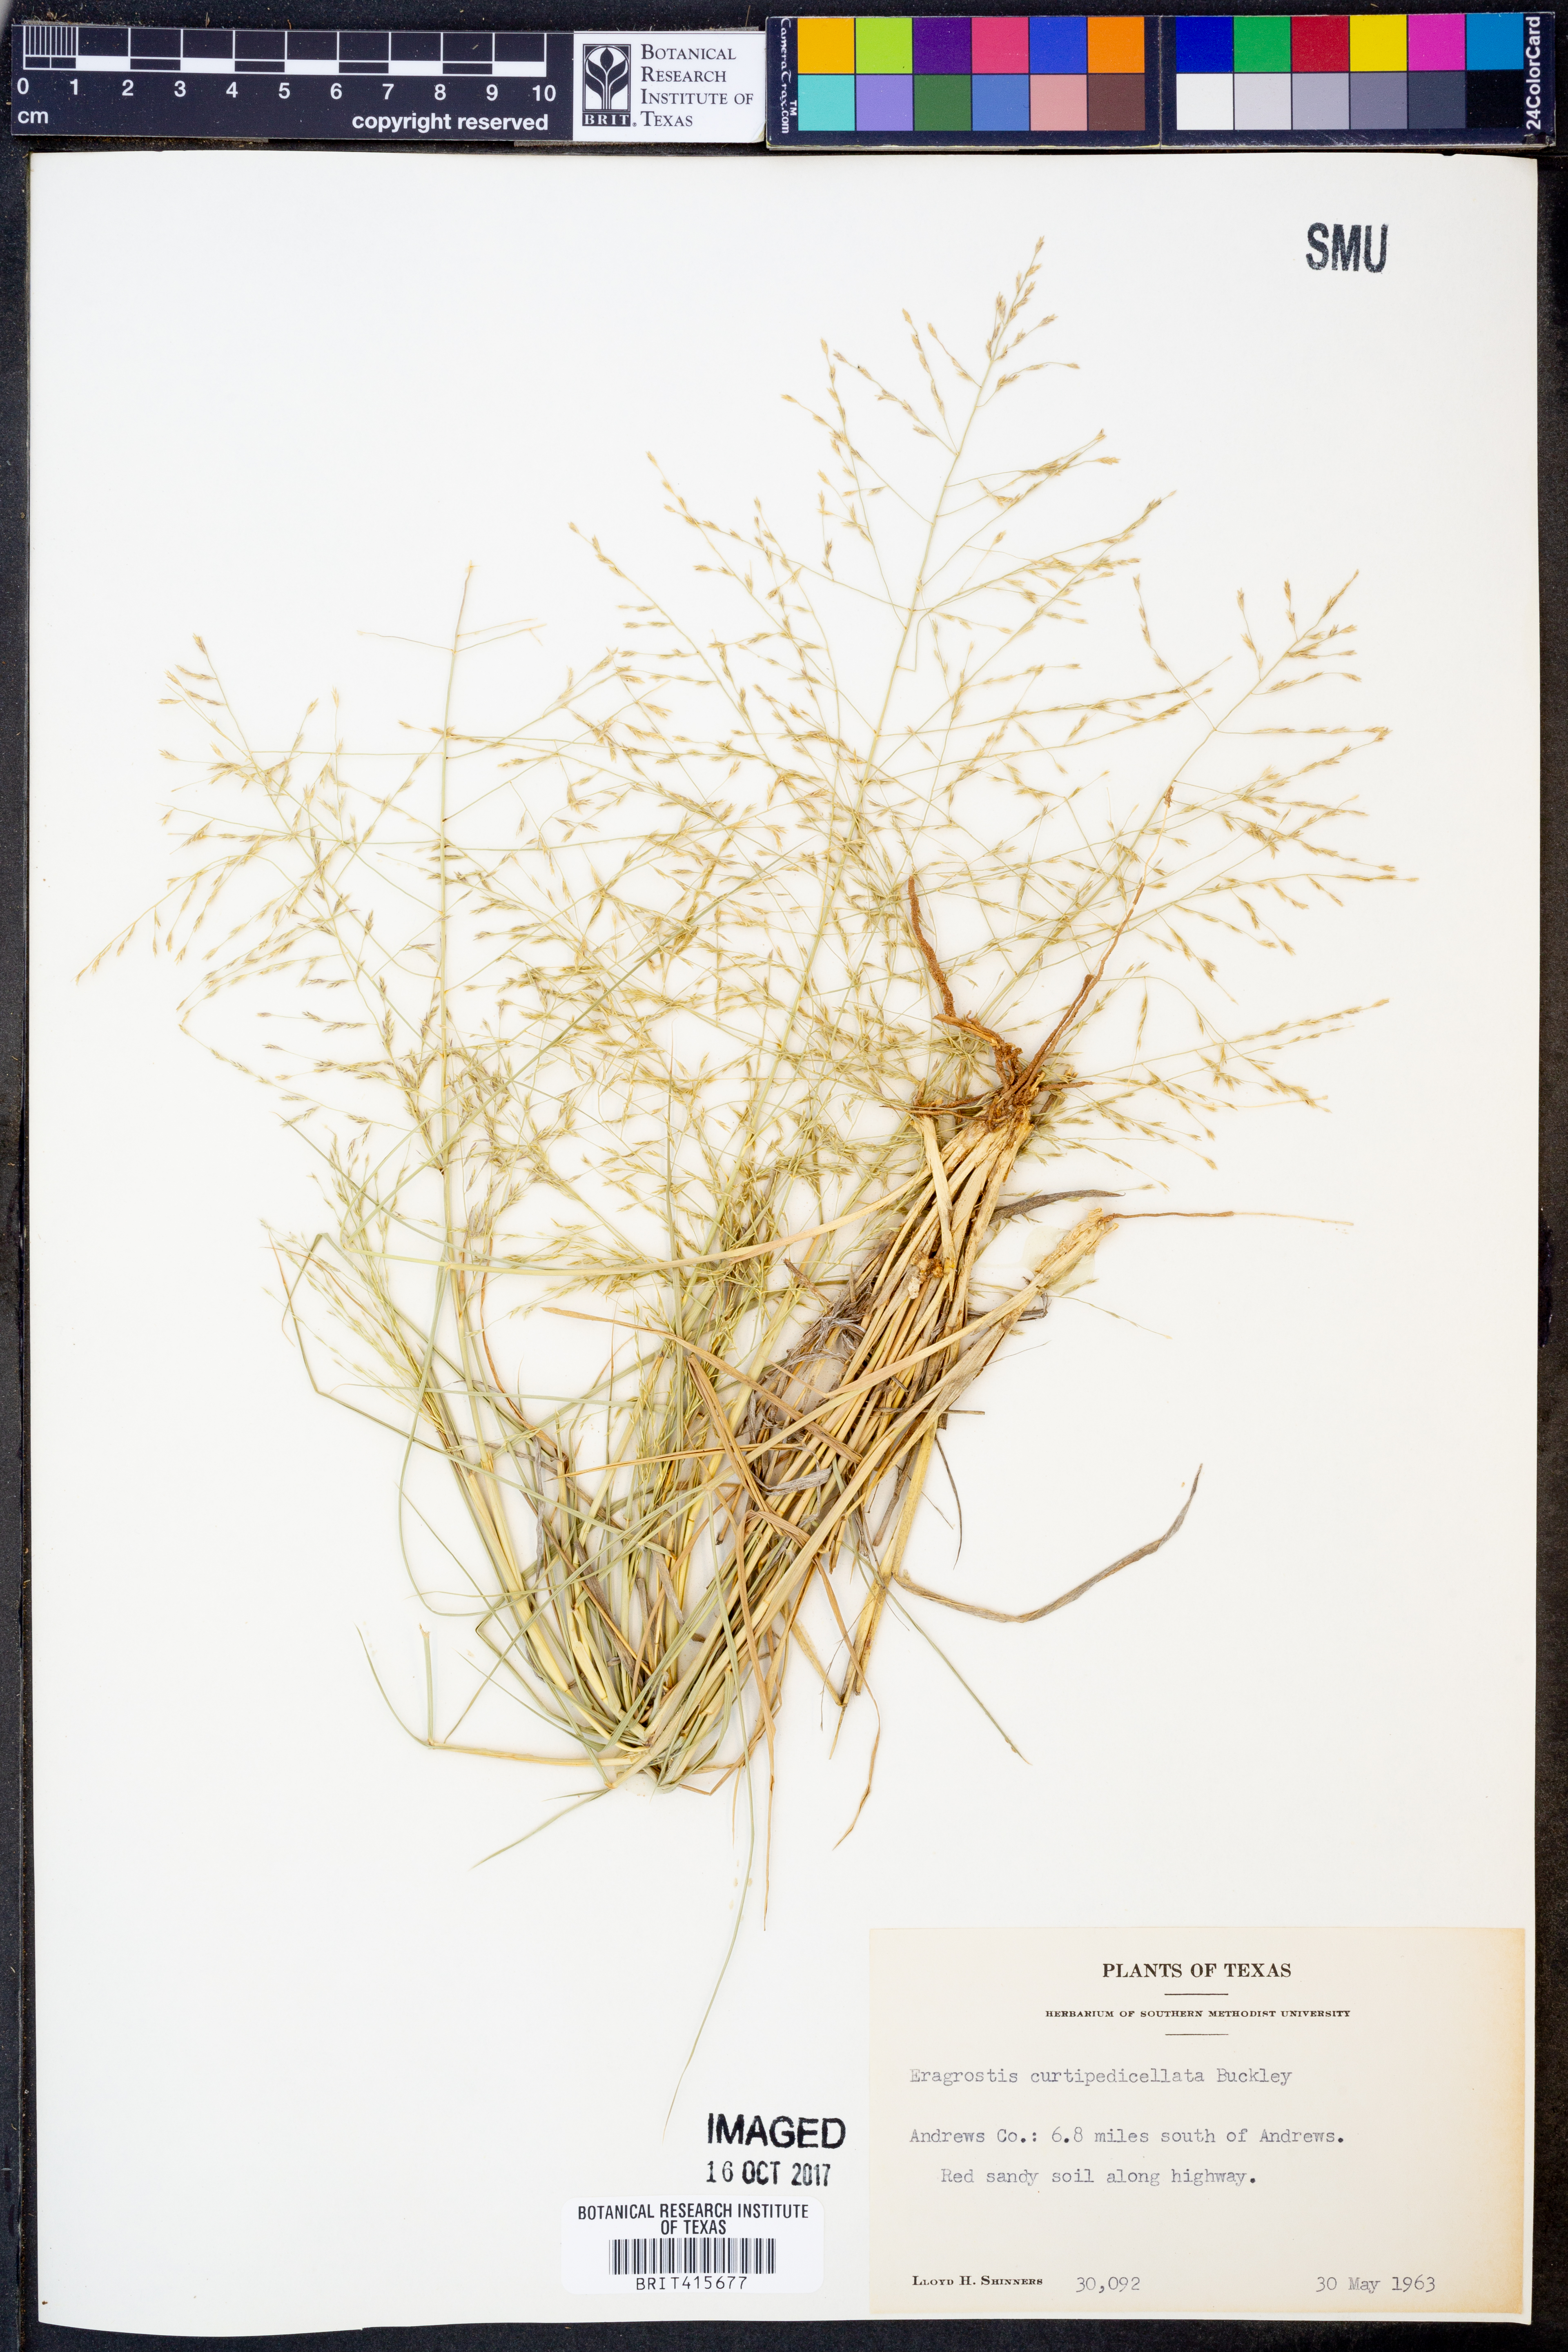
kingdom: Plantae
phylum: Tracheophyta
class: Liliopsida
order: Poales
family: Poaceae
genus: Eragrostis
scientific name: Eragrostis curtipedicellata
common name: Gummy love grass
